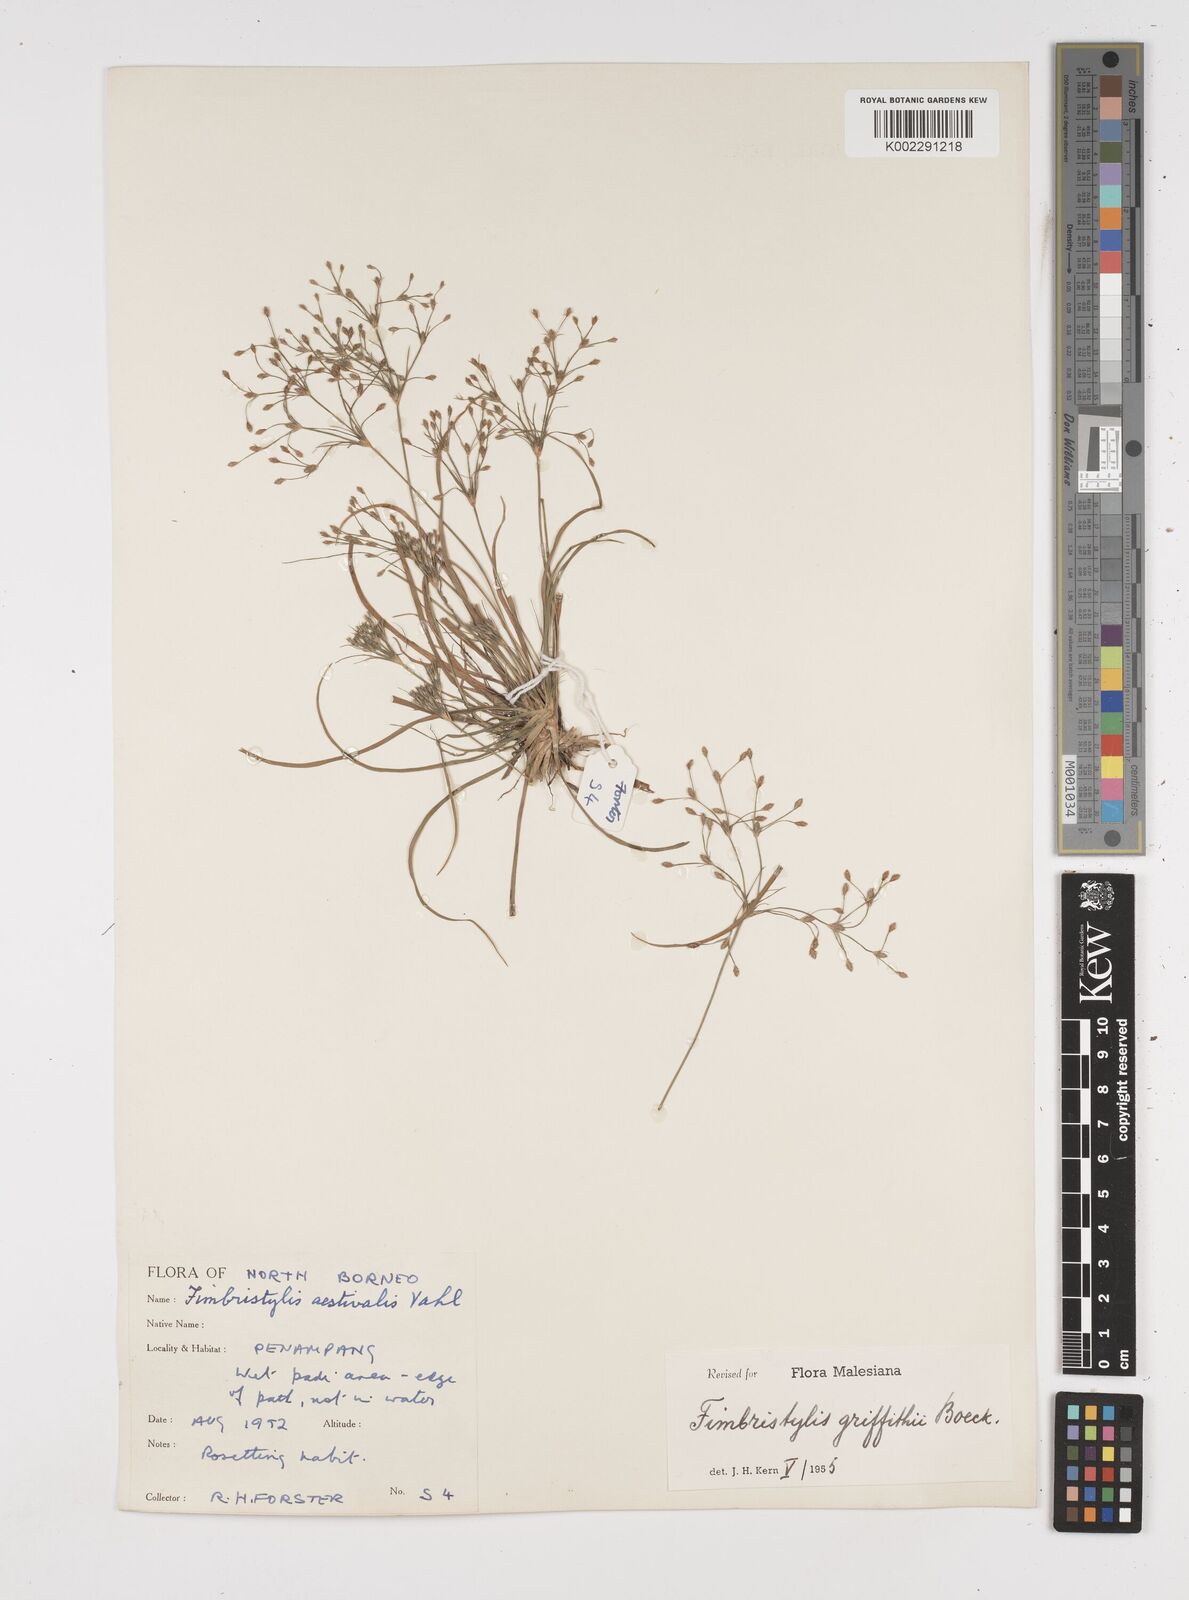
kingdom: Plantae
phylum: Tracheophyta
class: Liliopsida
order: Poales
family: Cyperaceae
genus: Fimbristylis
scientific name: Fimbristylis griffithii
